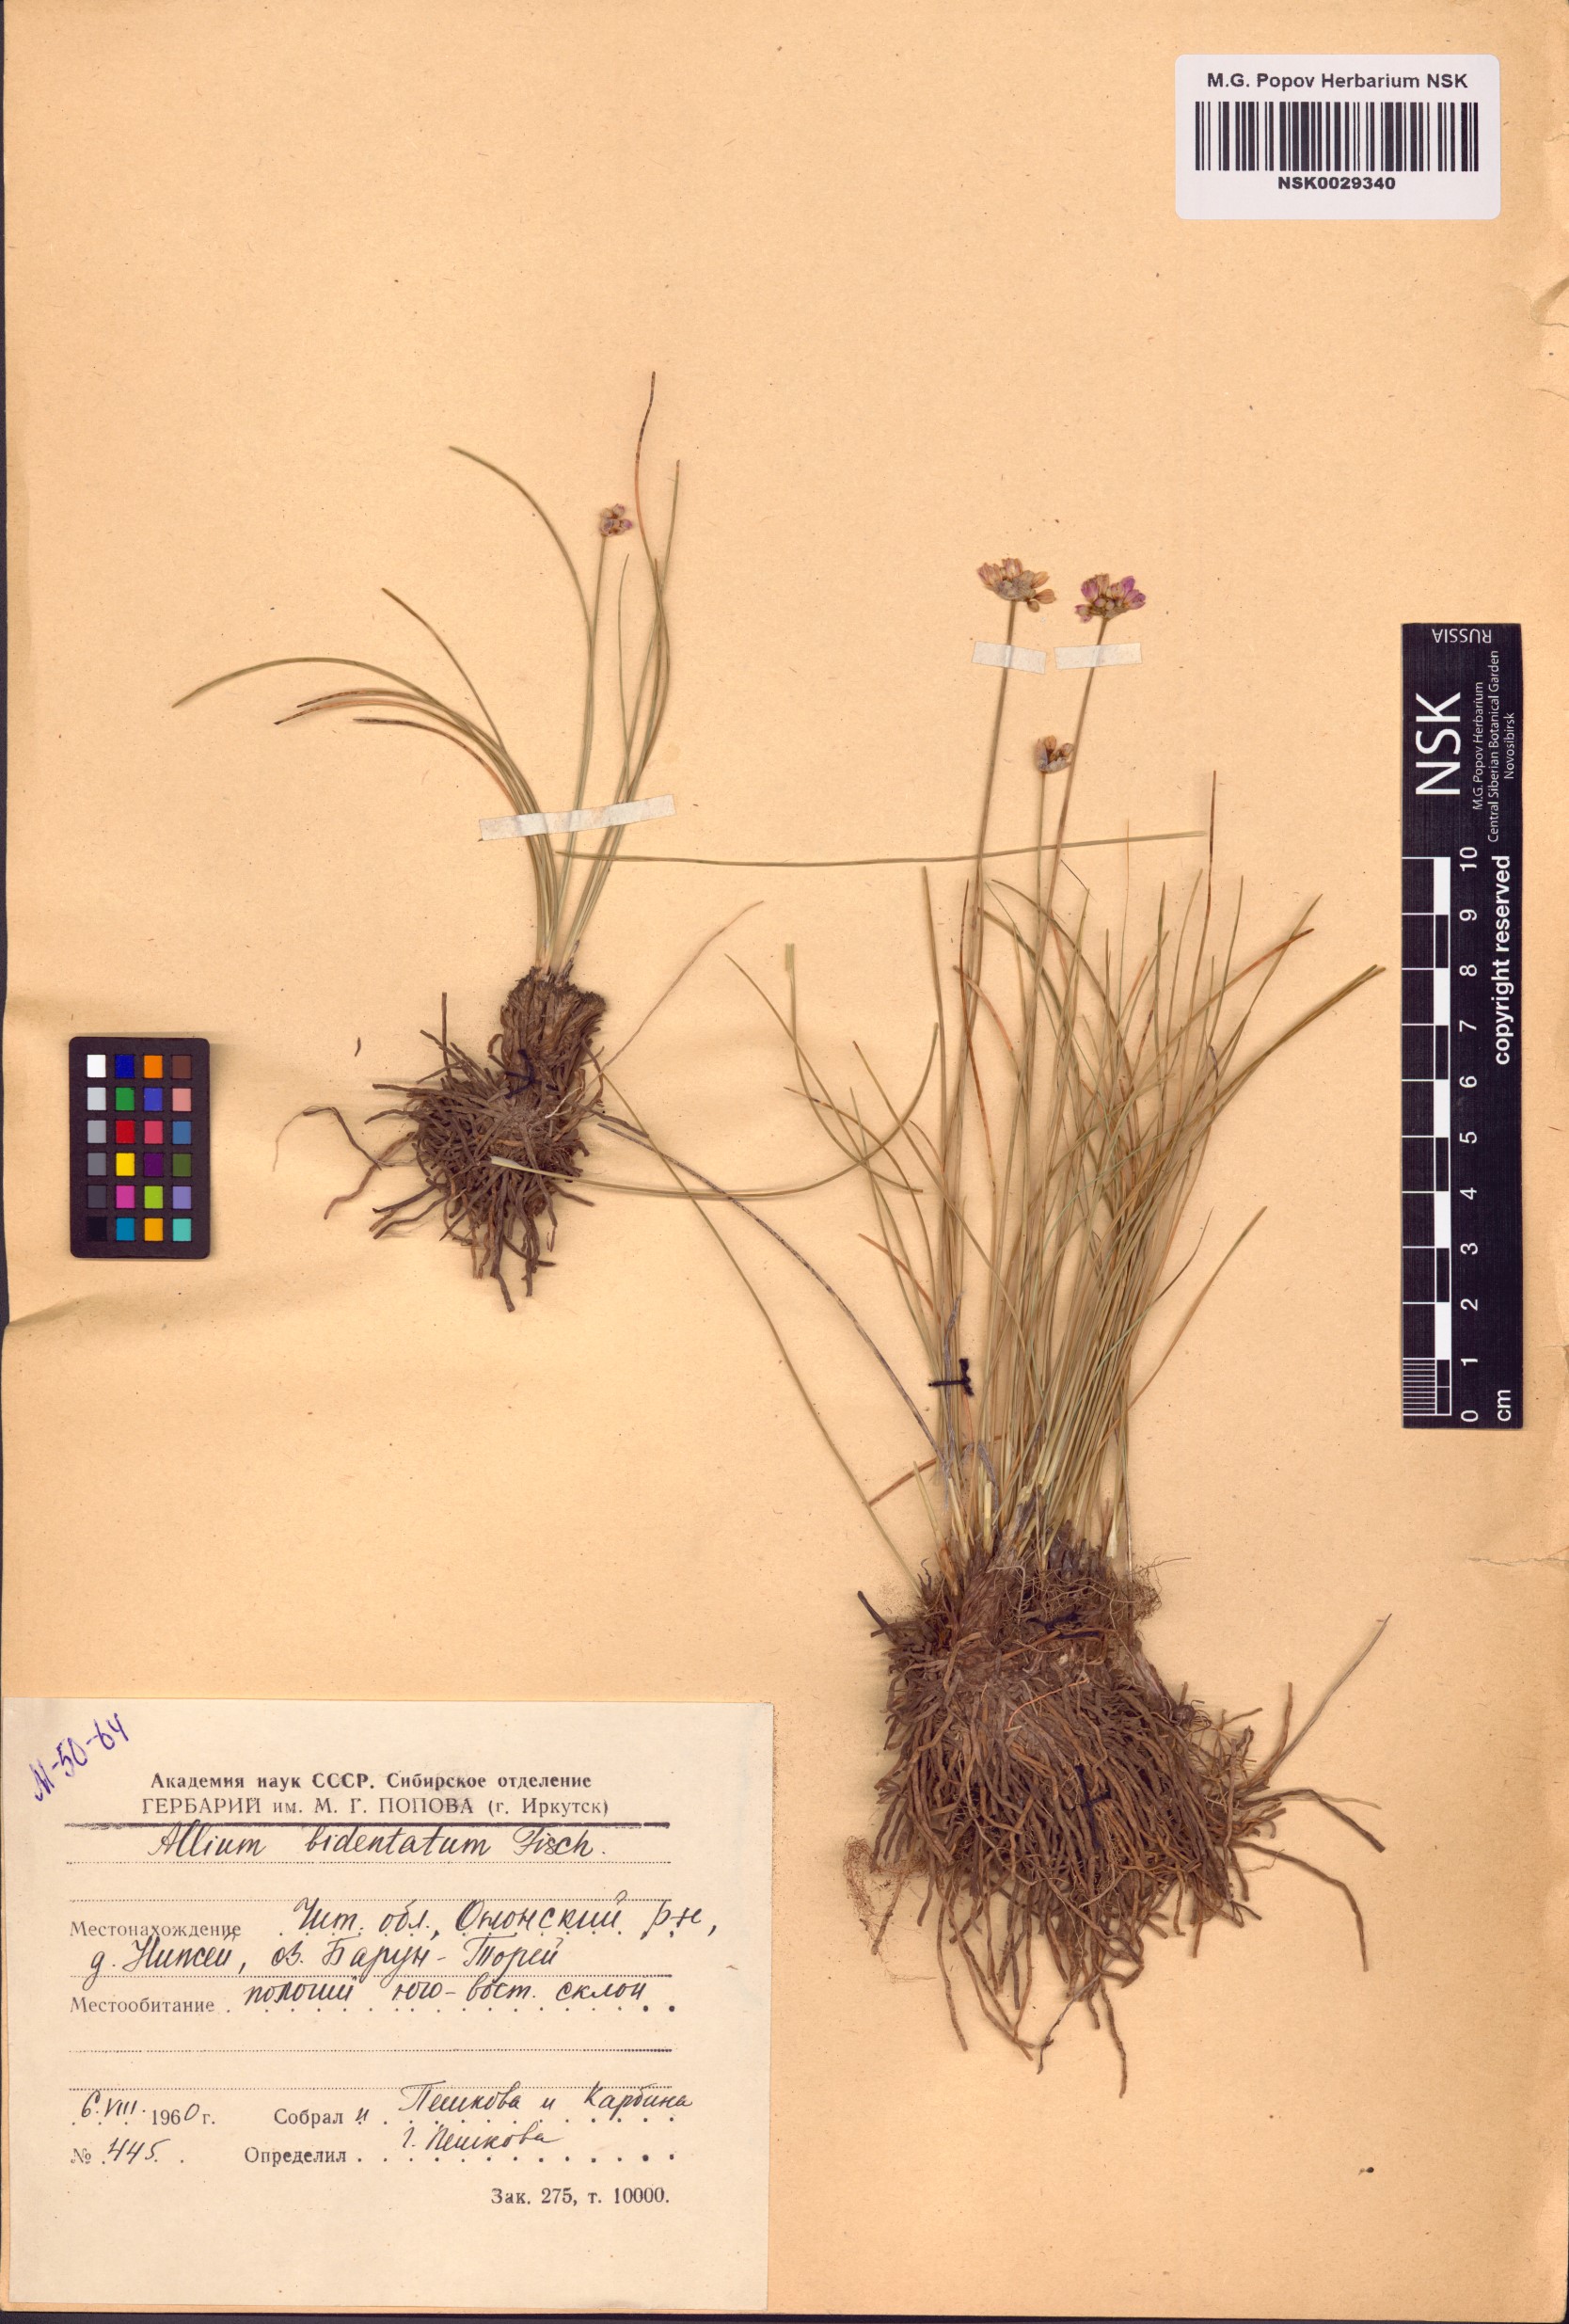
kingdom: Plantae
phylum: Tracheophyta
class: Liliopsida
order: Asparagales
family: Amaryllidaceae
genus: Allium
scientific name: Allium bidentatum
